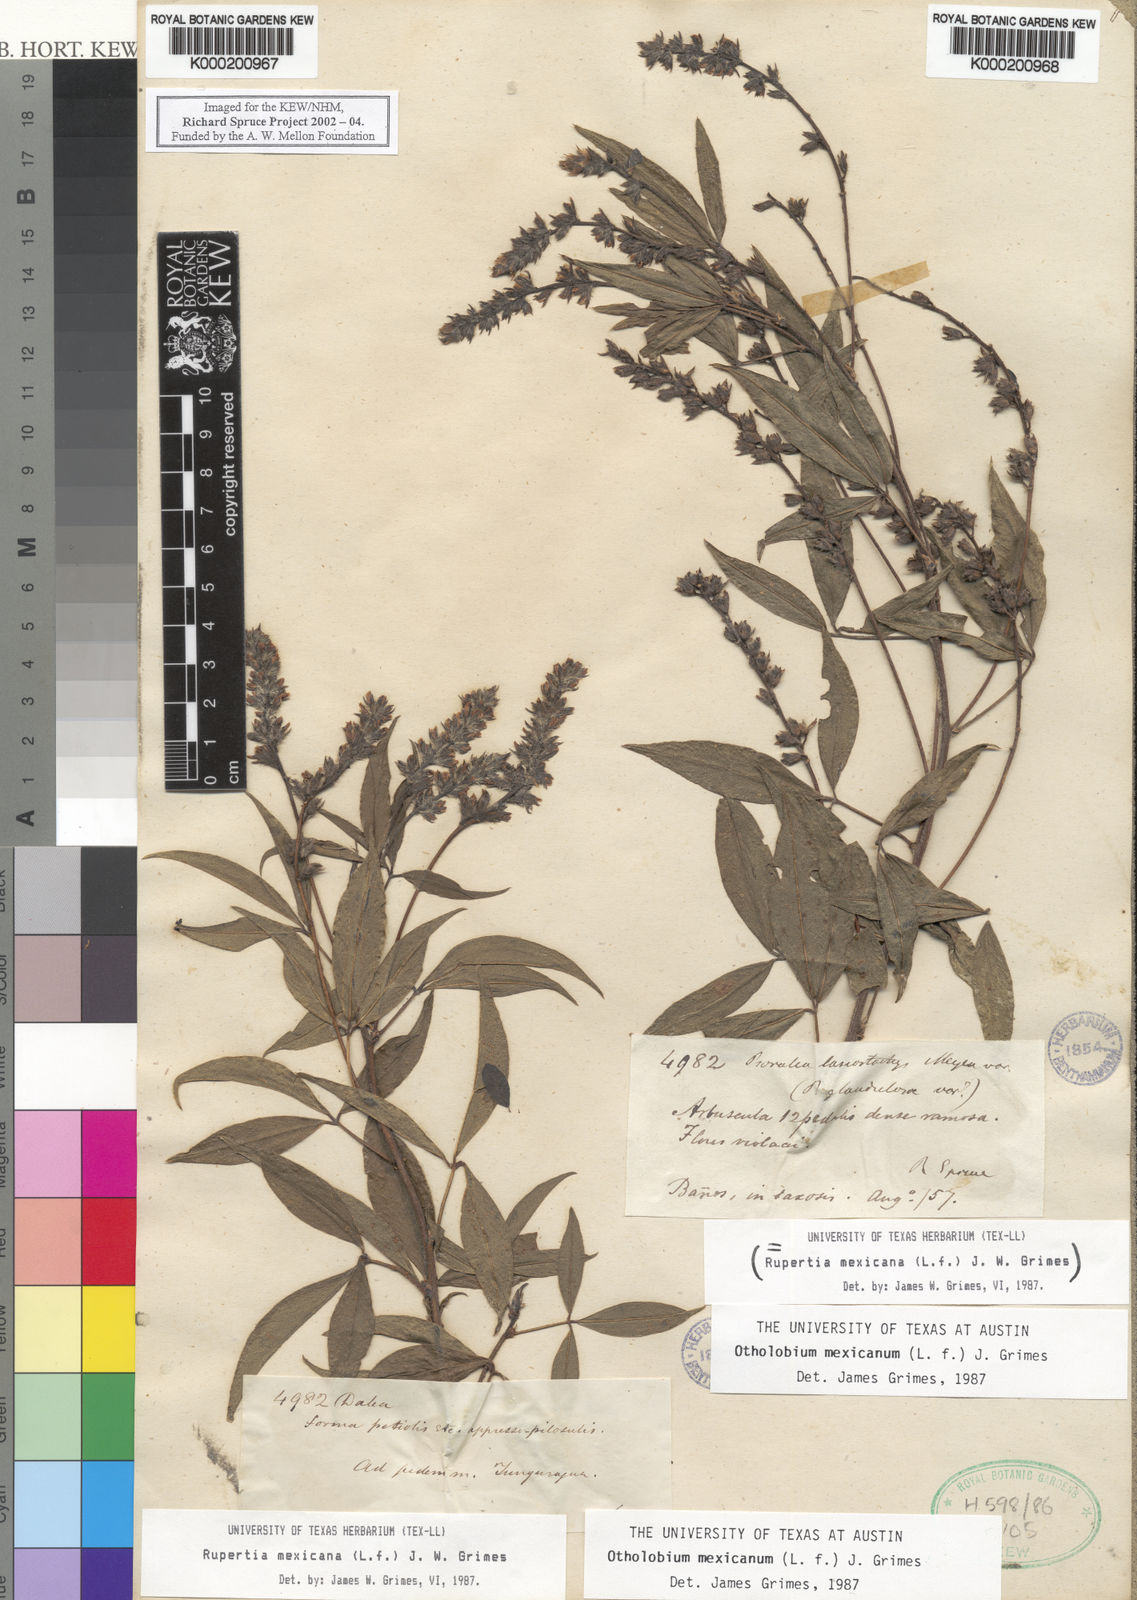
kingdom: Plantae
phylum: Tracheophyta
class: Magnoliopsida
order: Fabales
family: Fabaceae
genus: Psoralea
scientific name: Psoralea Otholobium mexicanum
